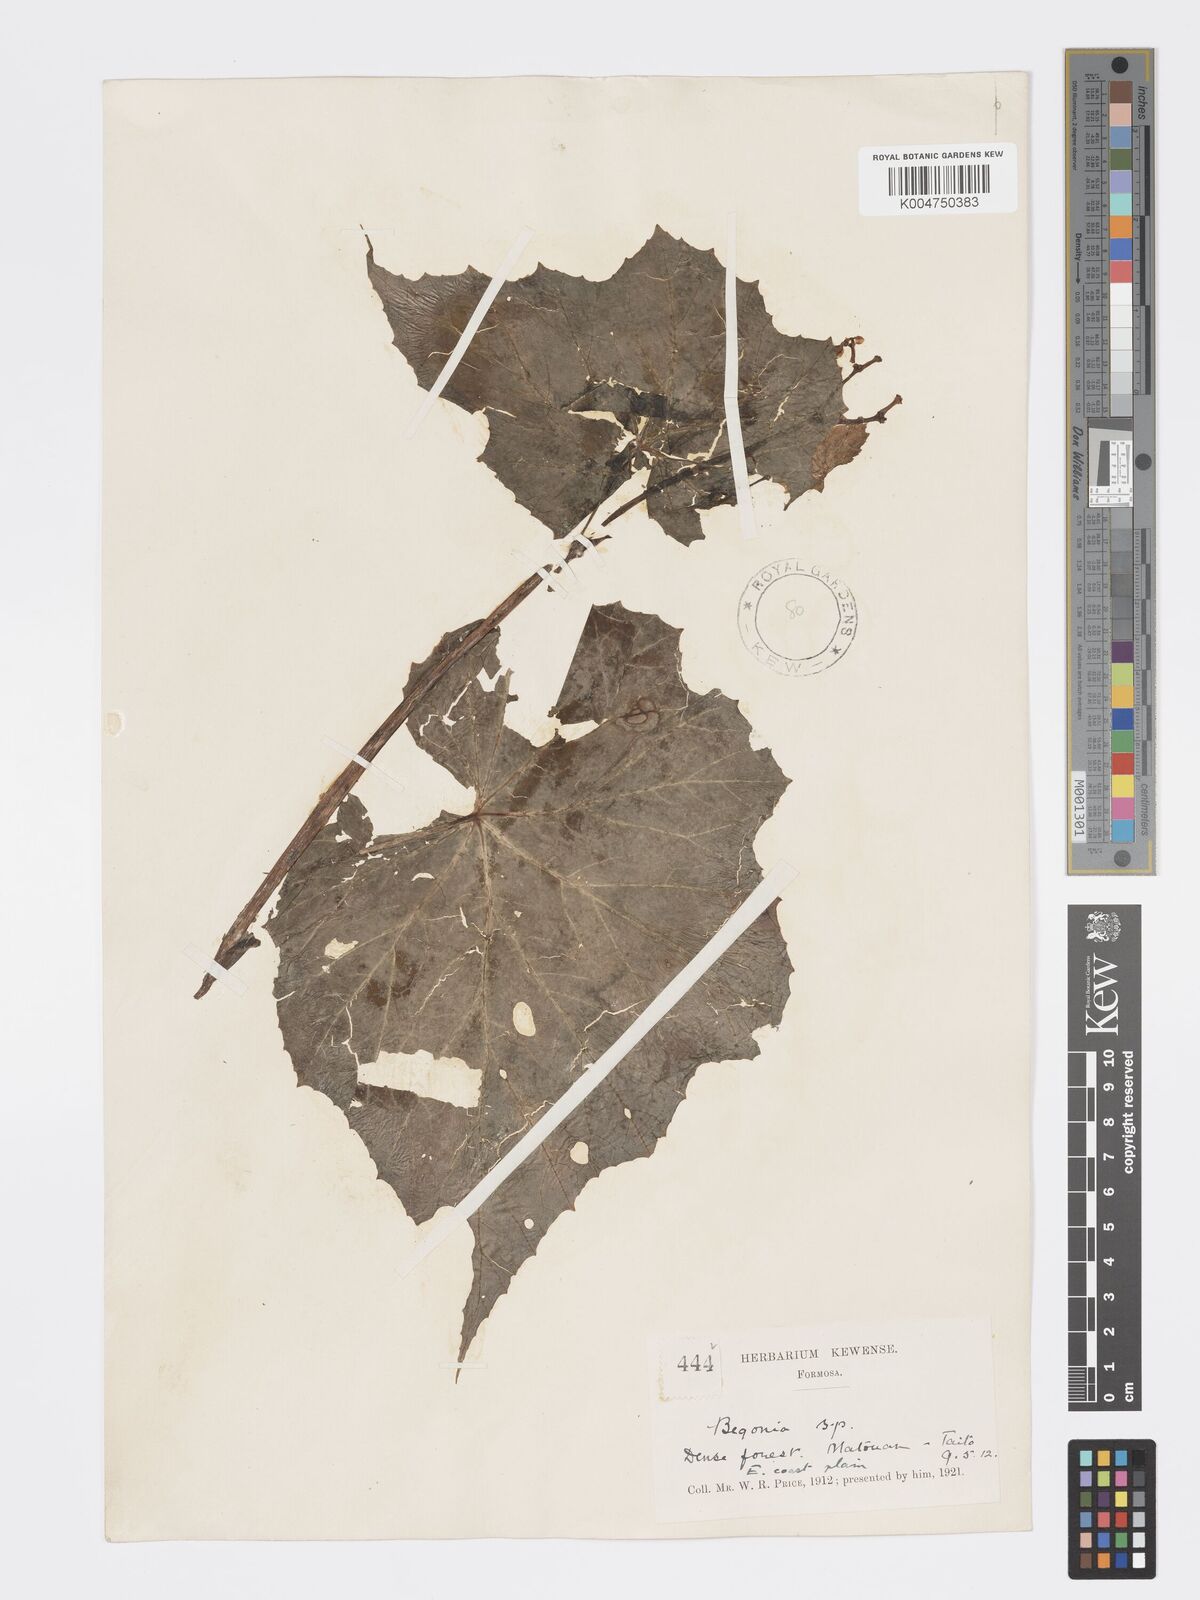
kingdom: Plantae
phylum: Tracheophyta
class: Magnoliopsida
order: Cucurbitales
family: Begoniaceae
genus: Begonia
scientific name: Begonia palmata
